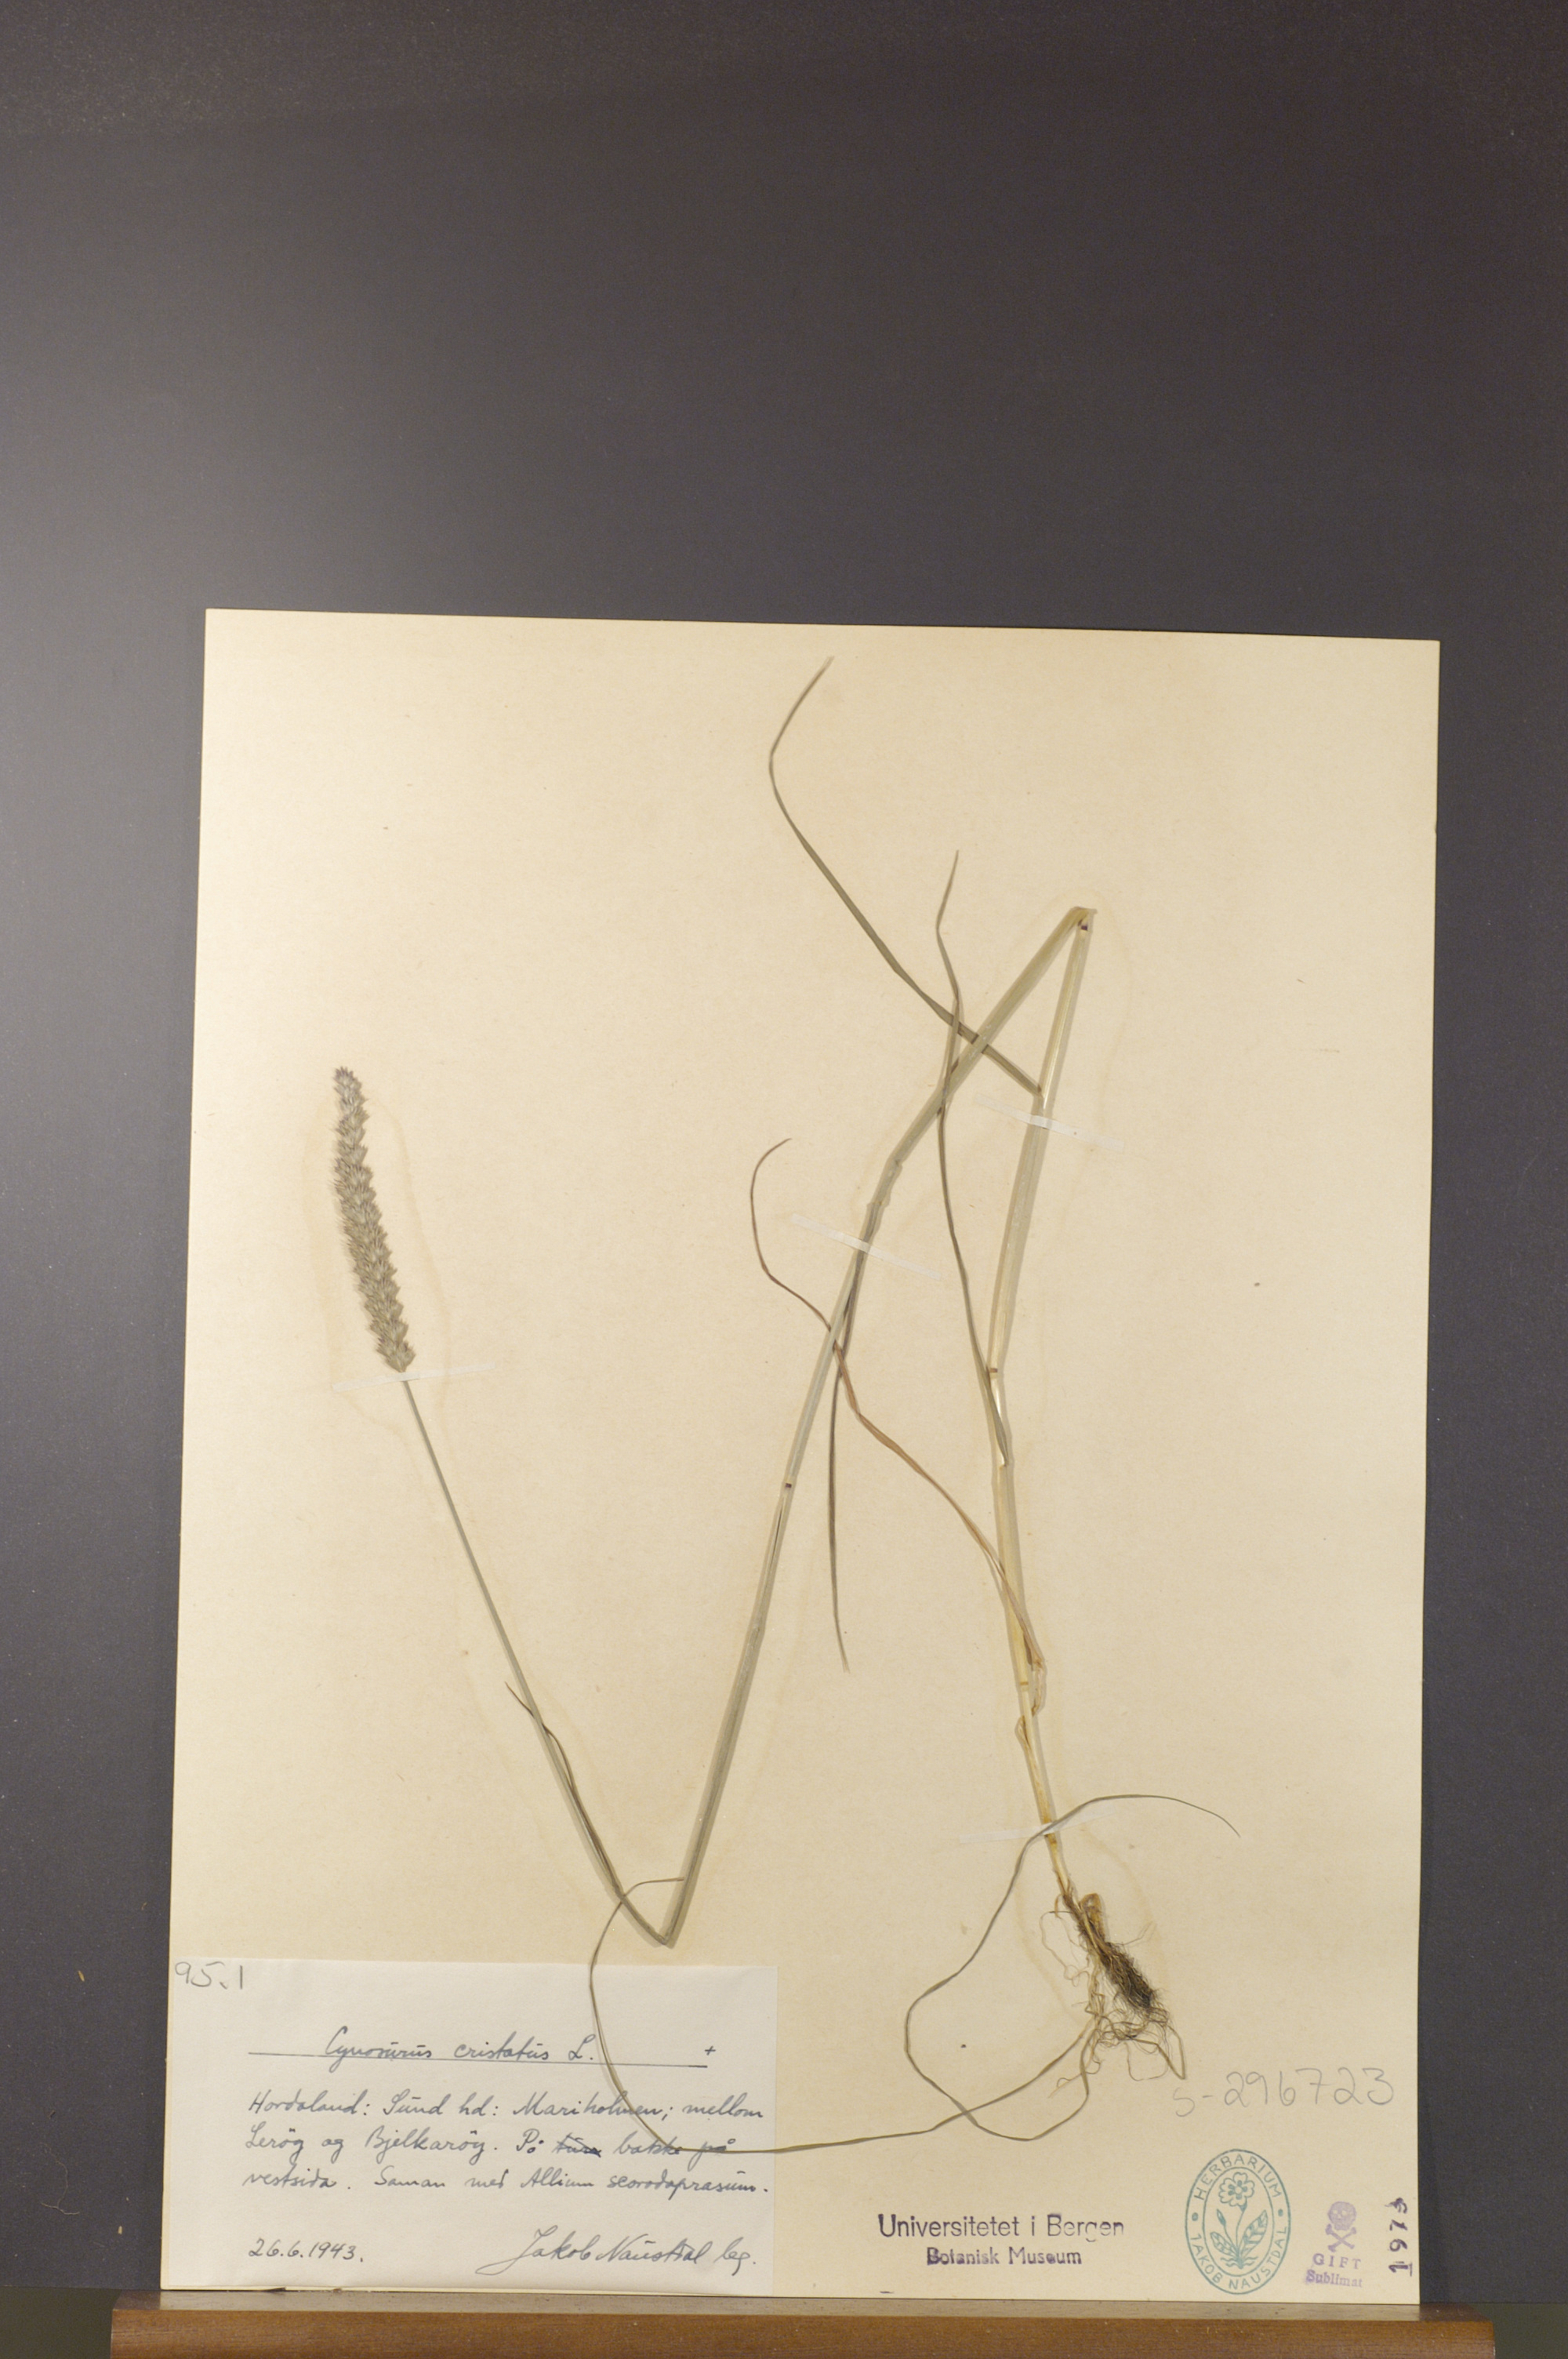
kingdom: Plantae
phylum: Tracheophyta
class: Liliopsida
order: Poales
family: Poaceae
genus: Cynosurus
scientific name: Cynosurus cristatus
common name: Crested dog's-tail
